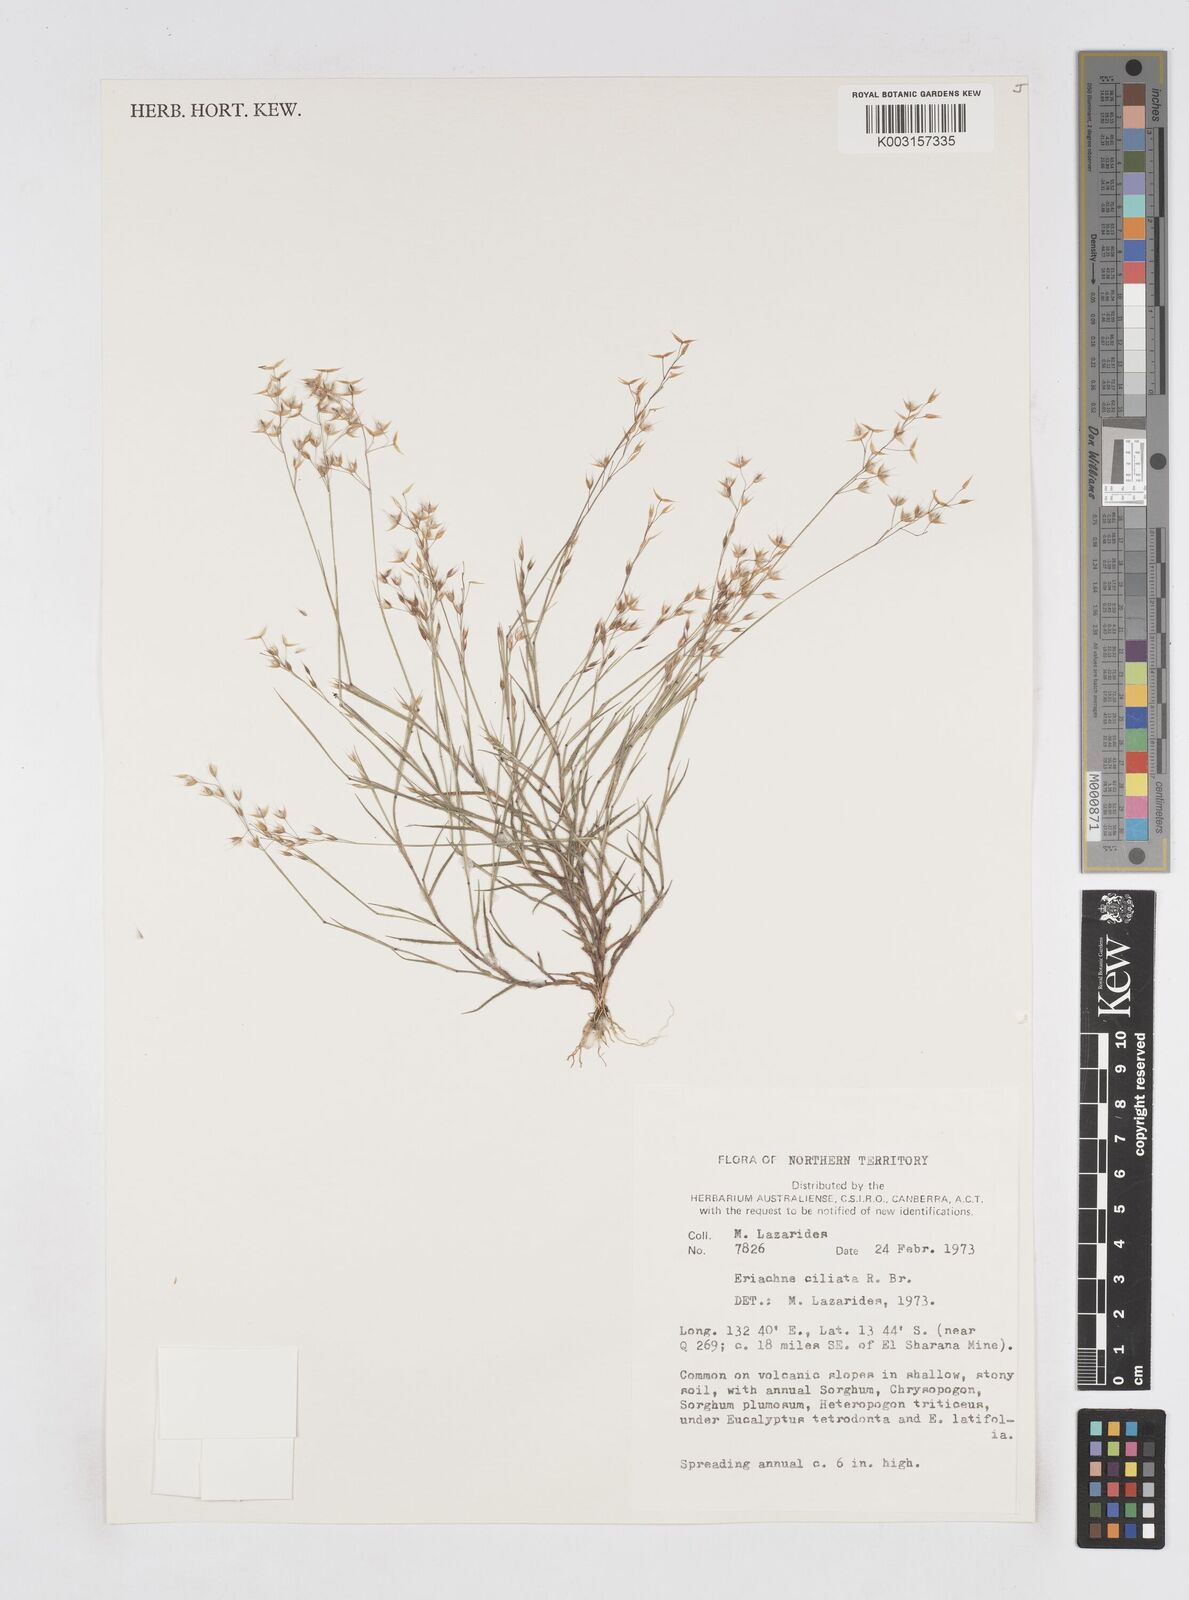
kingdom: Plantae
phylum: Tracheophyta
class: Liliopsida
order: Poales
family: Poaceae
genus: Eriachne
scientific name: Eriachne ciliata
